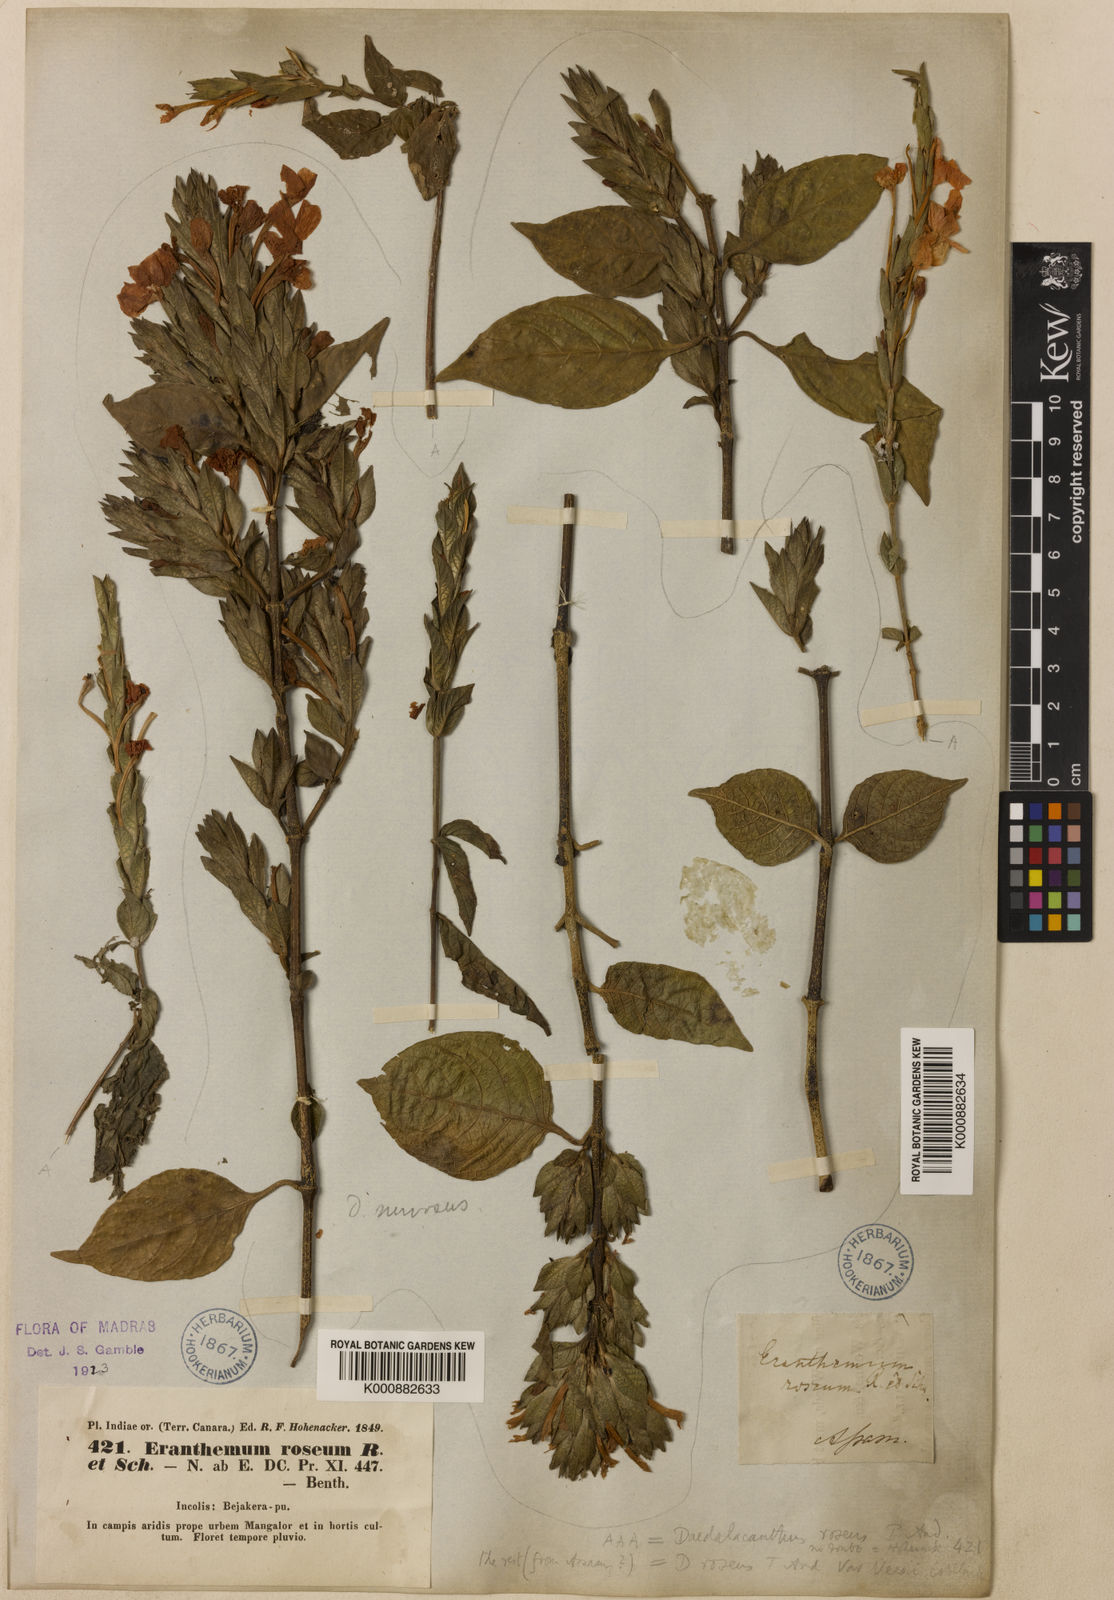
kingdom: Plantae
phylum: Tracheophyta
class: Magnoliopsida
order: Lamiales
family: Acanthaceae
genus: Eranthemum
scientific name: Eranthemum
